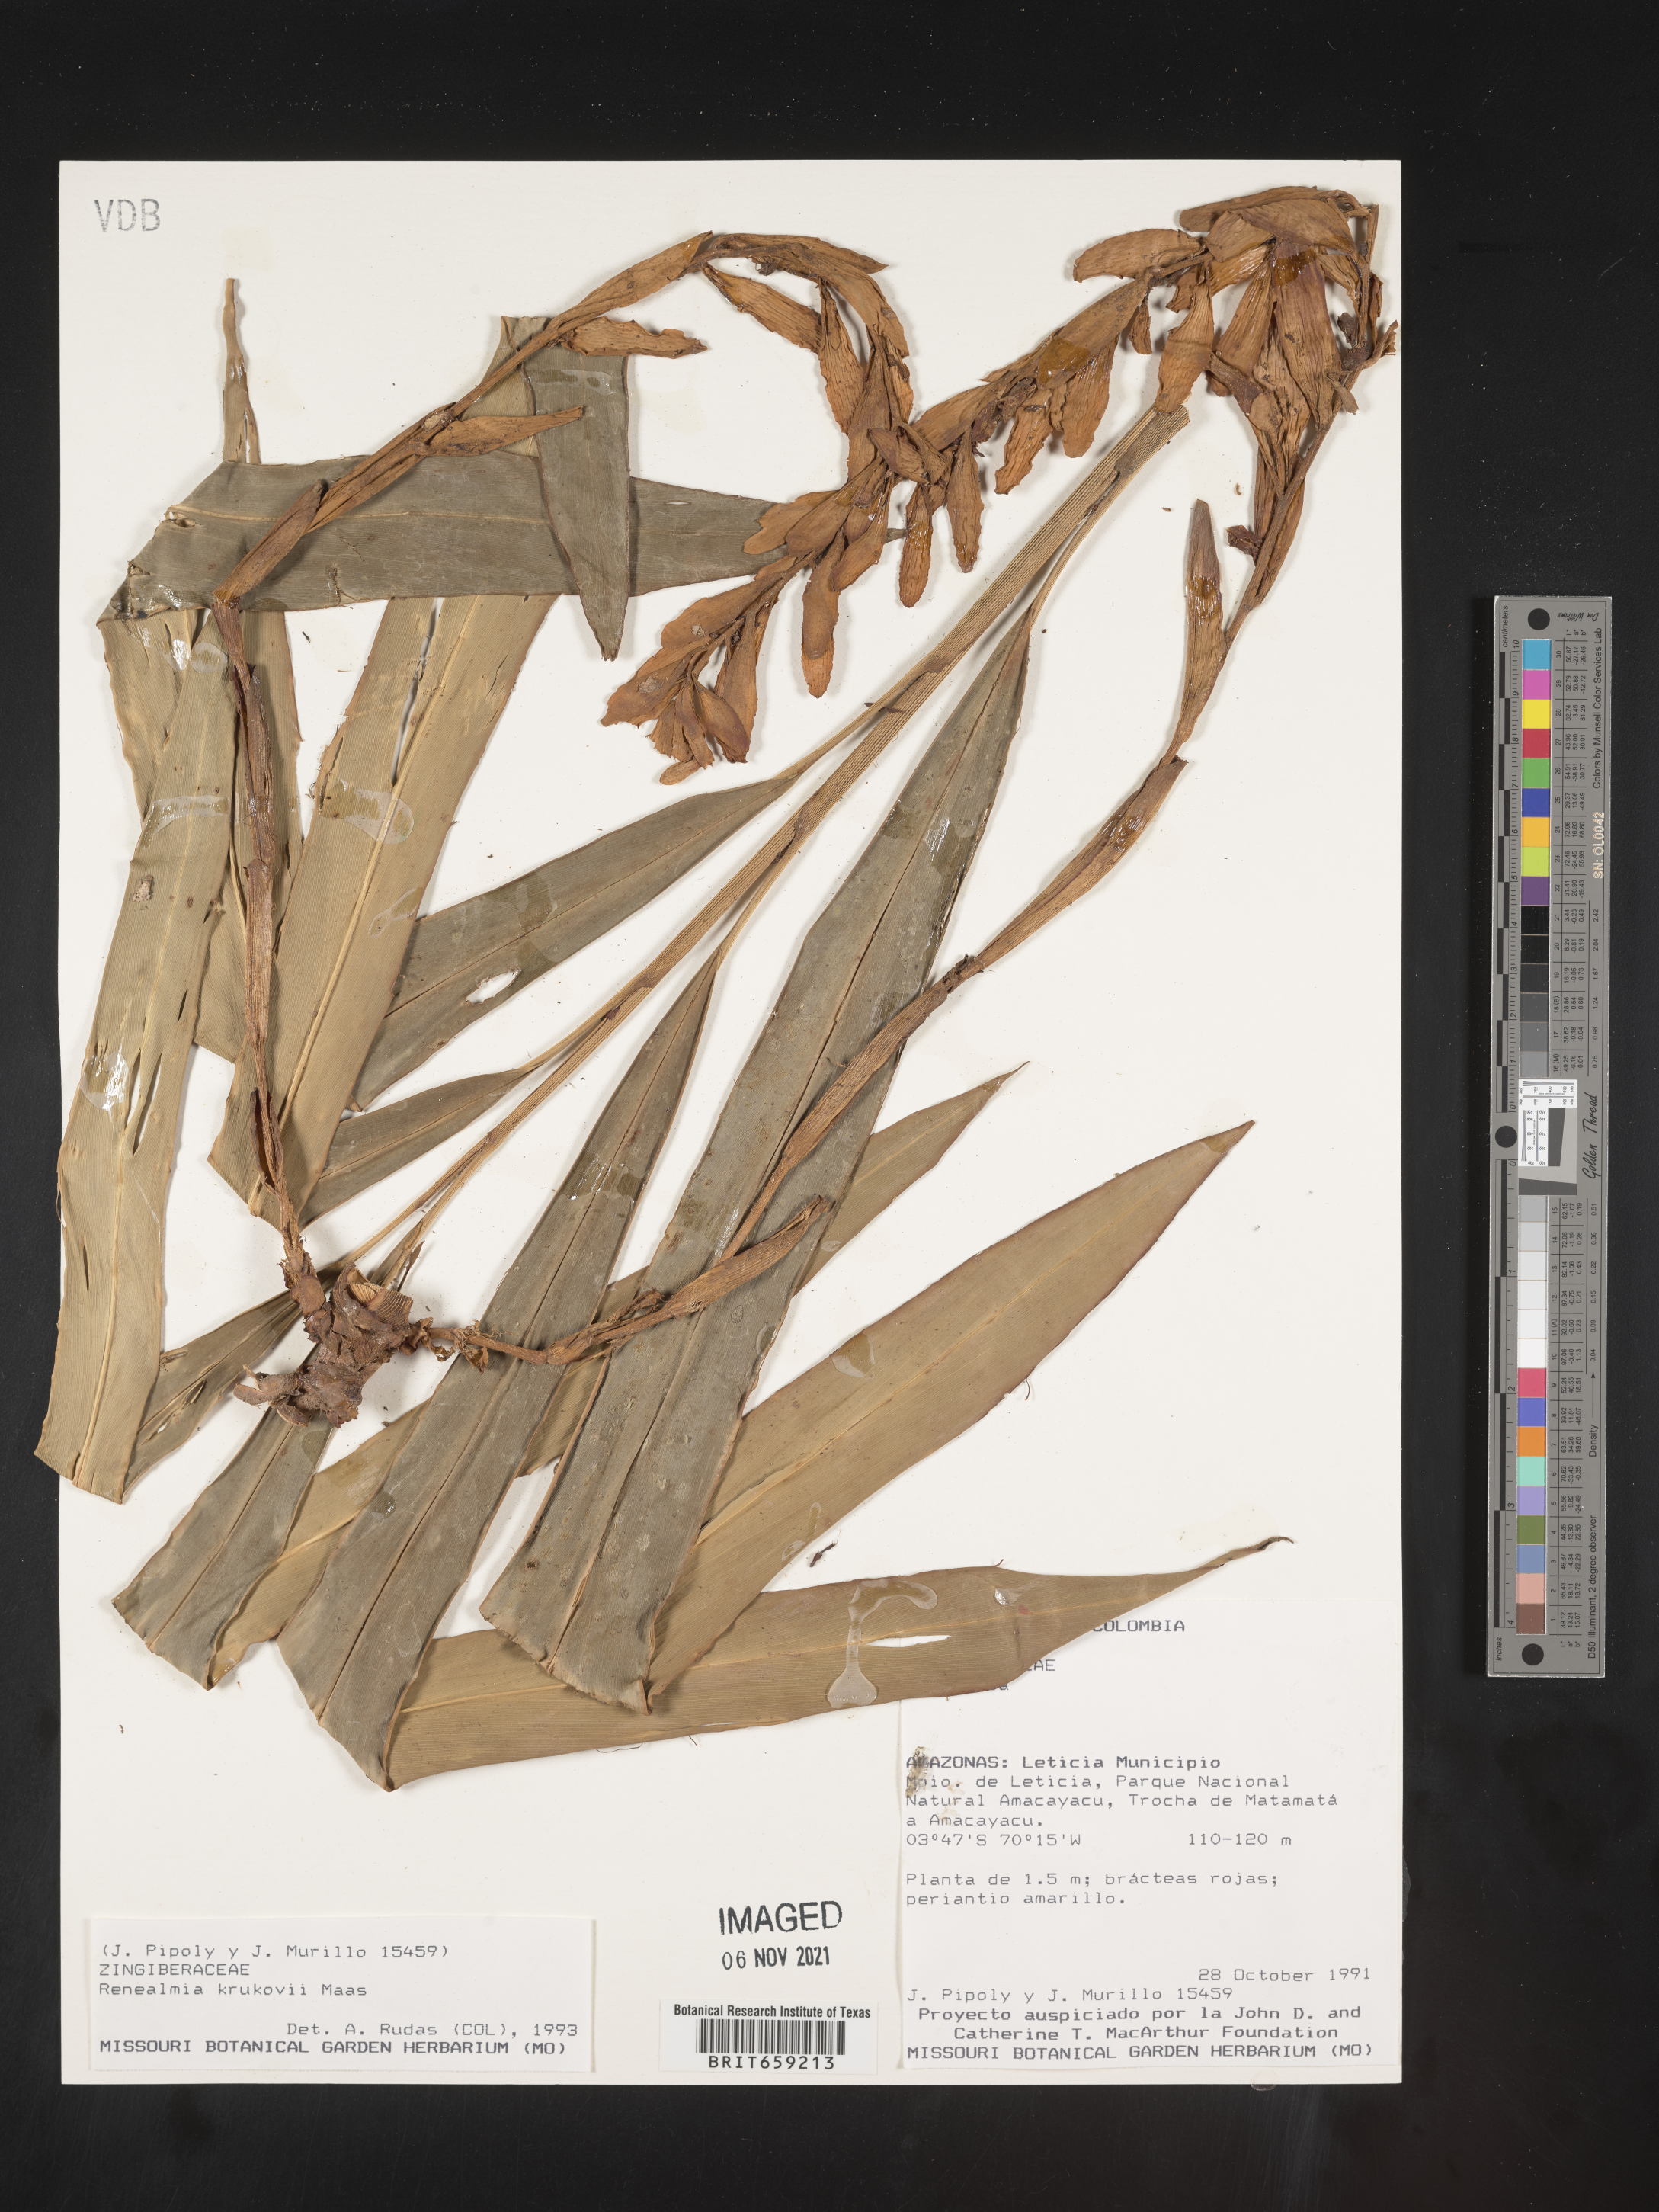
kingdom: Plantae
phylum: Tracheophyta
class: Liliopsida
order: Zingiberales
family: Zingiberaceae
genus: Renealmia
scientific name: Renealmia
